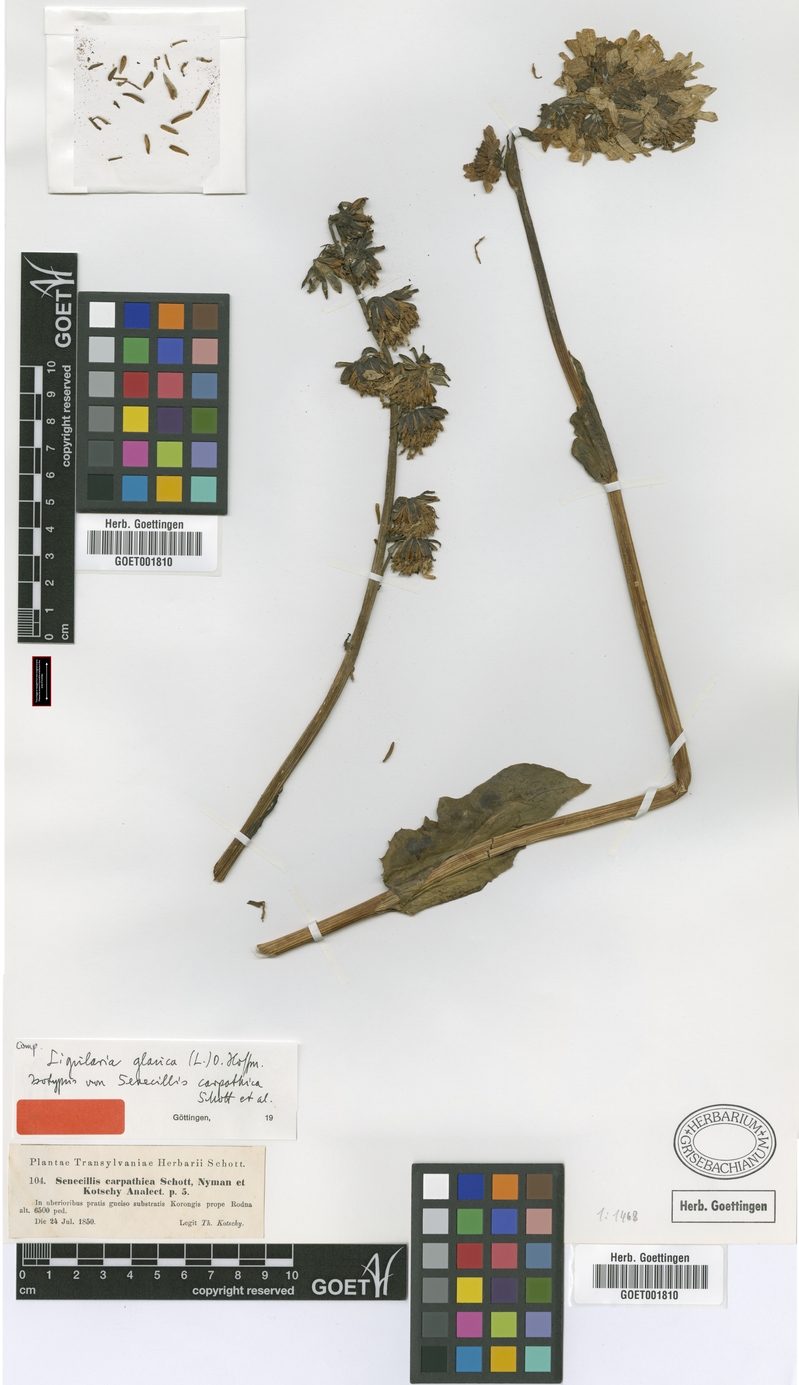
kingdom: Plantae
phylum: Tracheophyta
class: Magnoliopsida
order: Asterales
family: Asteraceae
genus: Ligularia
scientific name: Ligularia glauca
